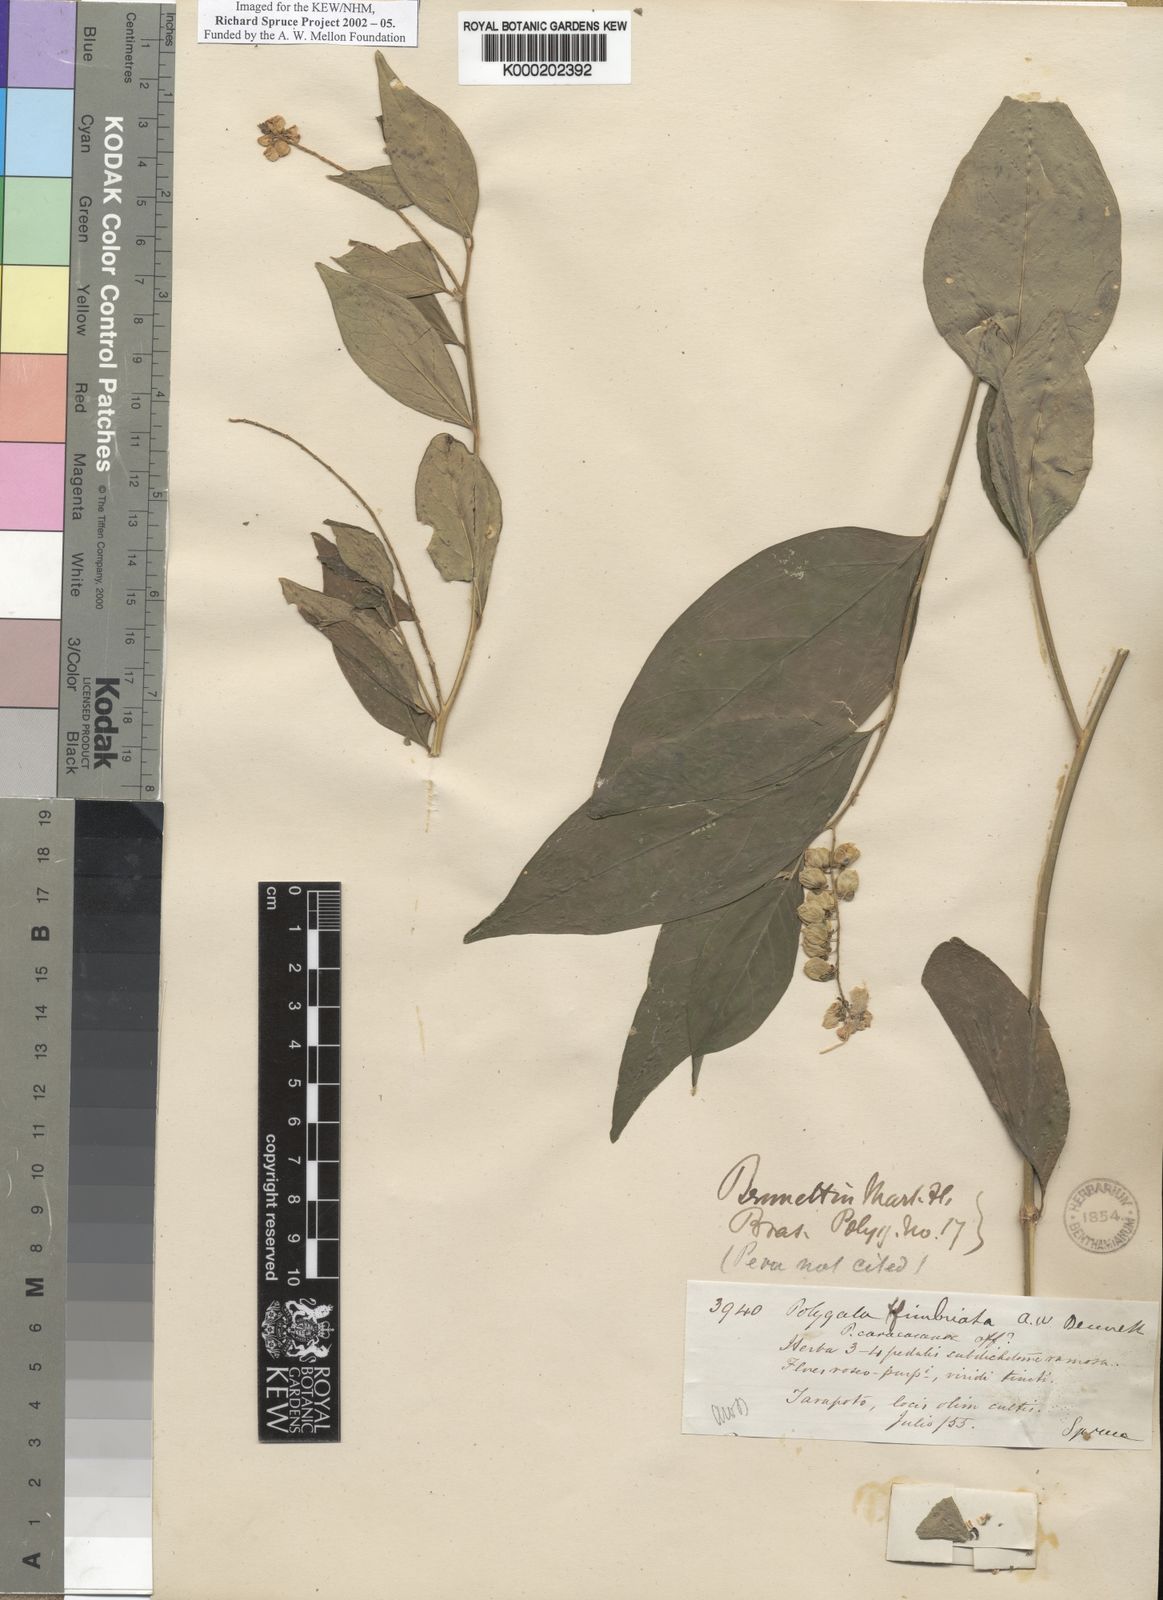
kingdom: Plantae
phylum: Tracheophyta
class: Magnoliopsida
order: Fabales
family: Polygalaceae
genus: Asemeia
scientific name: Asemeia acuminata
